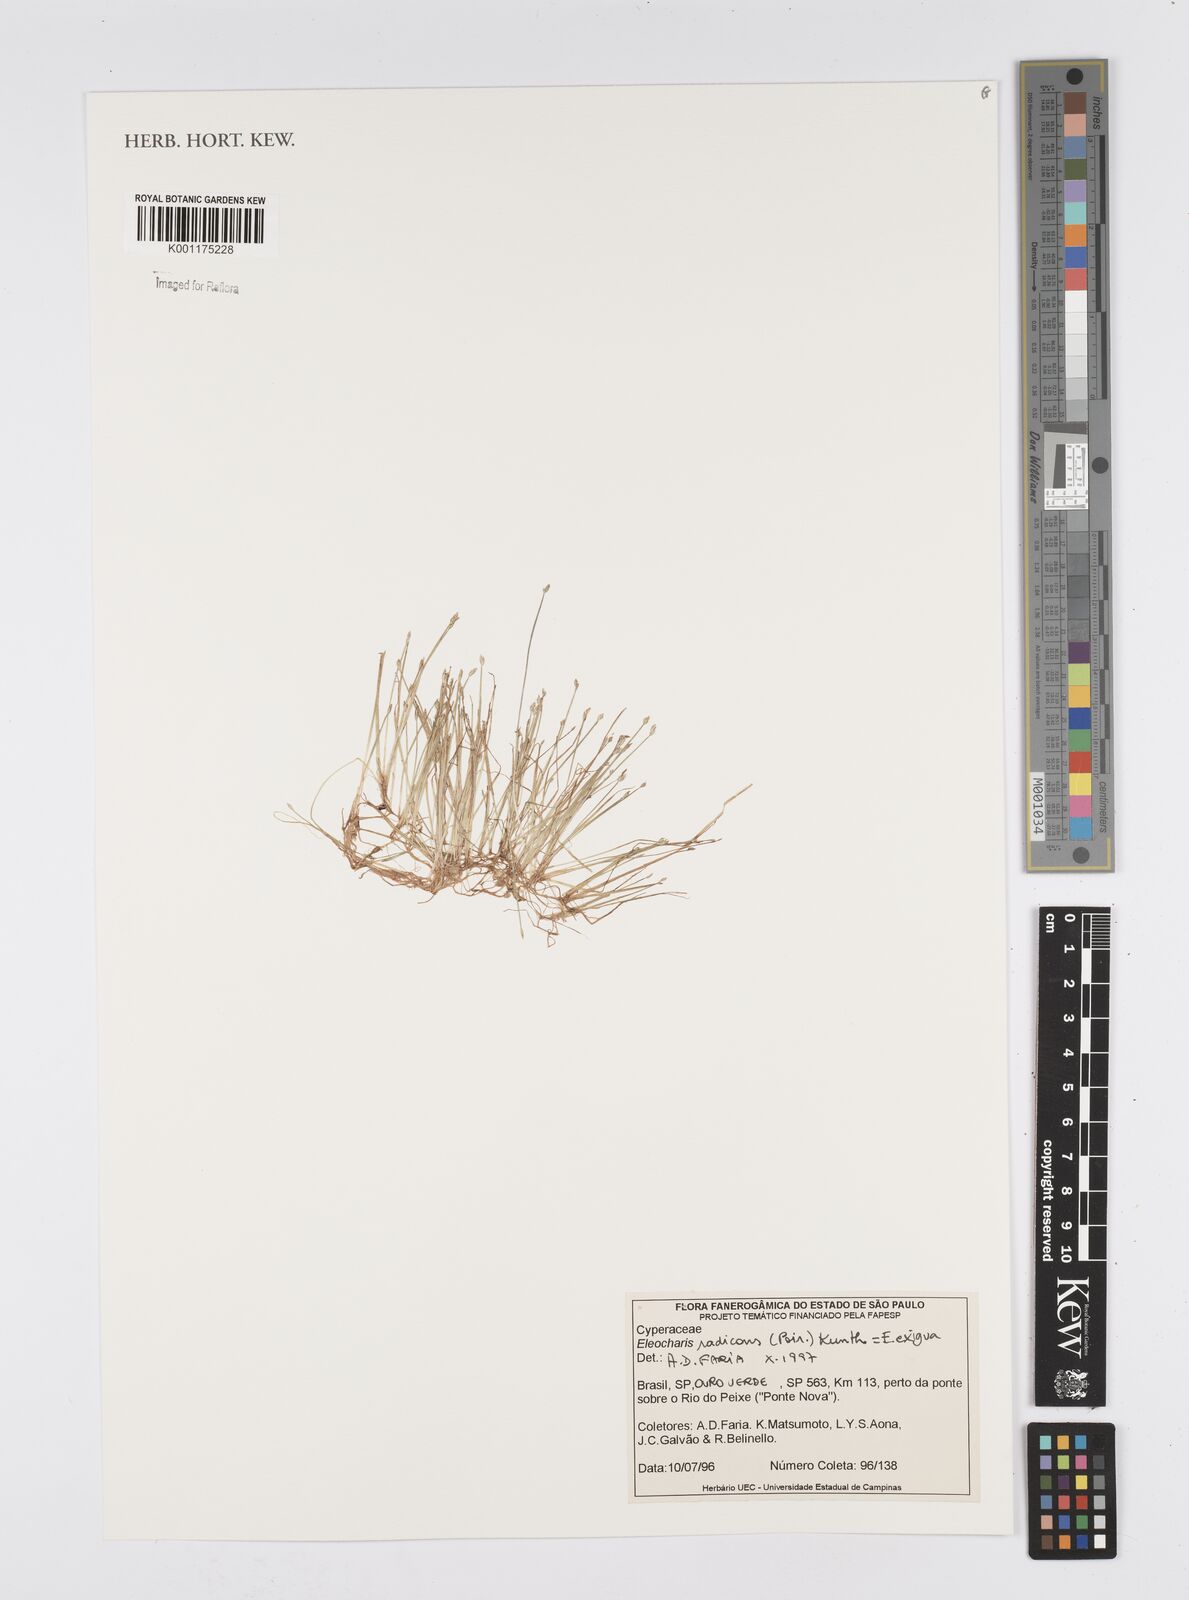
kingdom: Plantae
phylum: Tracheophyta
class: Liliopsida
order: Poales
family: Cyperaceae
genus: Eleocharis
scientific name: Eleocharis exigua
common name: Spikesedge
